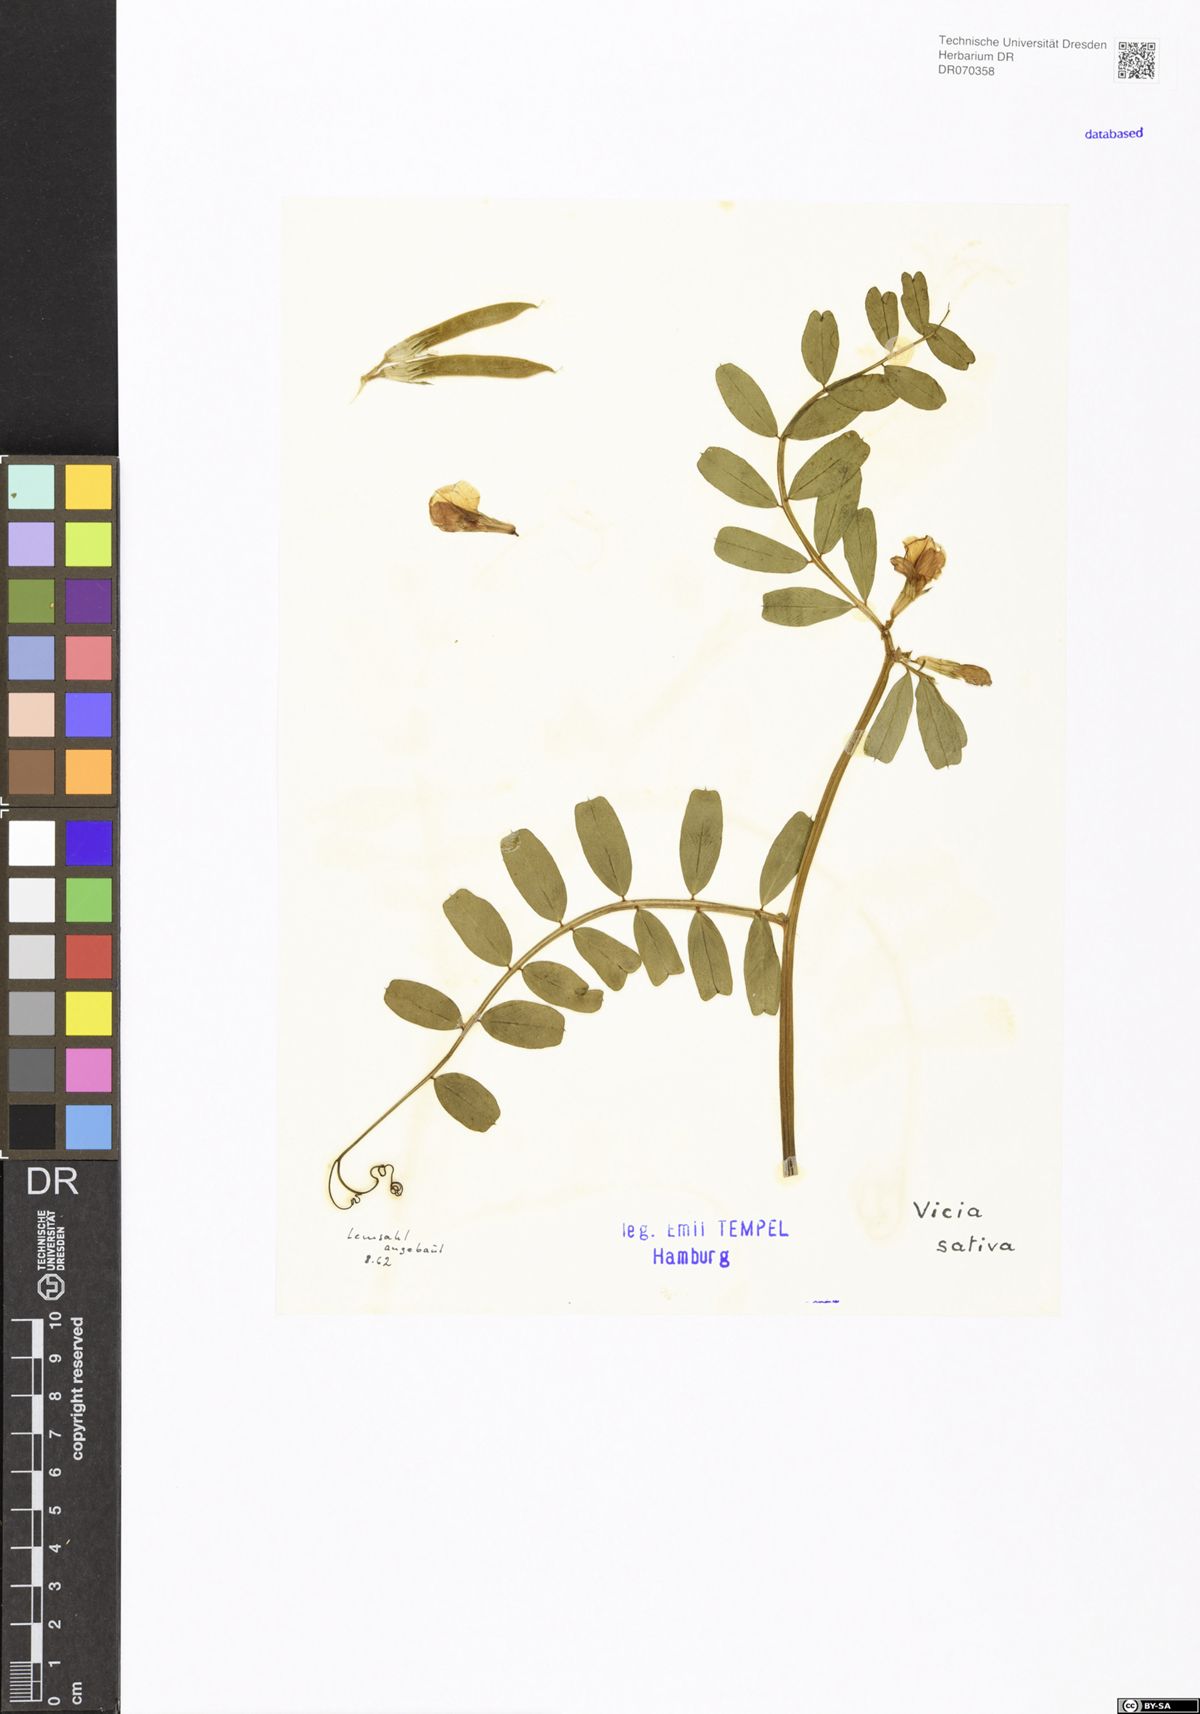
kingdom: Plantae
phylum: Tracheophyta
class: Magnoliopsida
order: Fabales
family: Fabaceae
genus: Vicia
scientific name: Vicia sativa
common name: Garden vetch
